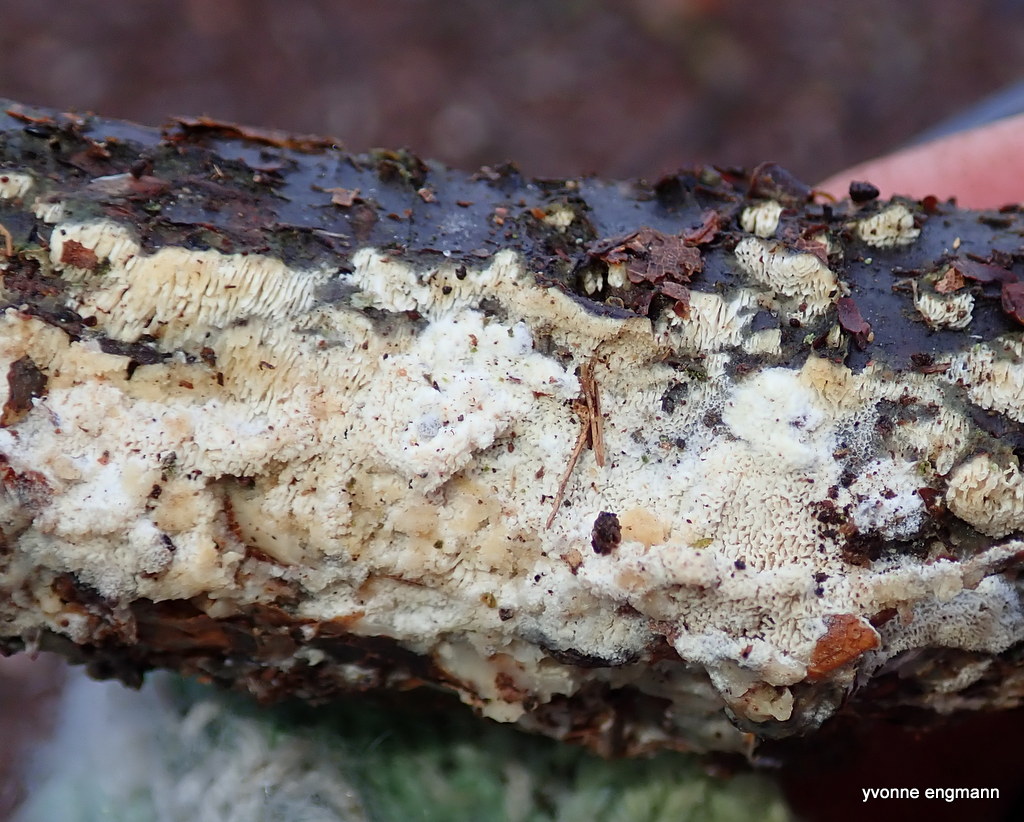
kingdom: Fungi
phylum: Basidiomycota
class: Agaricomycetes
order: Polyporales
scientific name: Polyporales
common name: poresvampordenen
